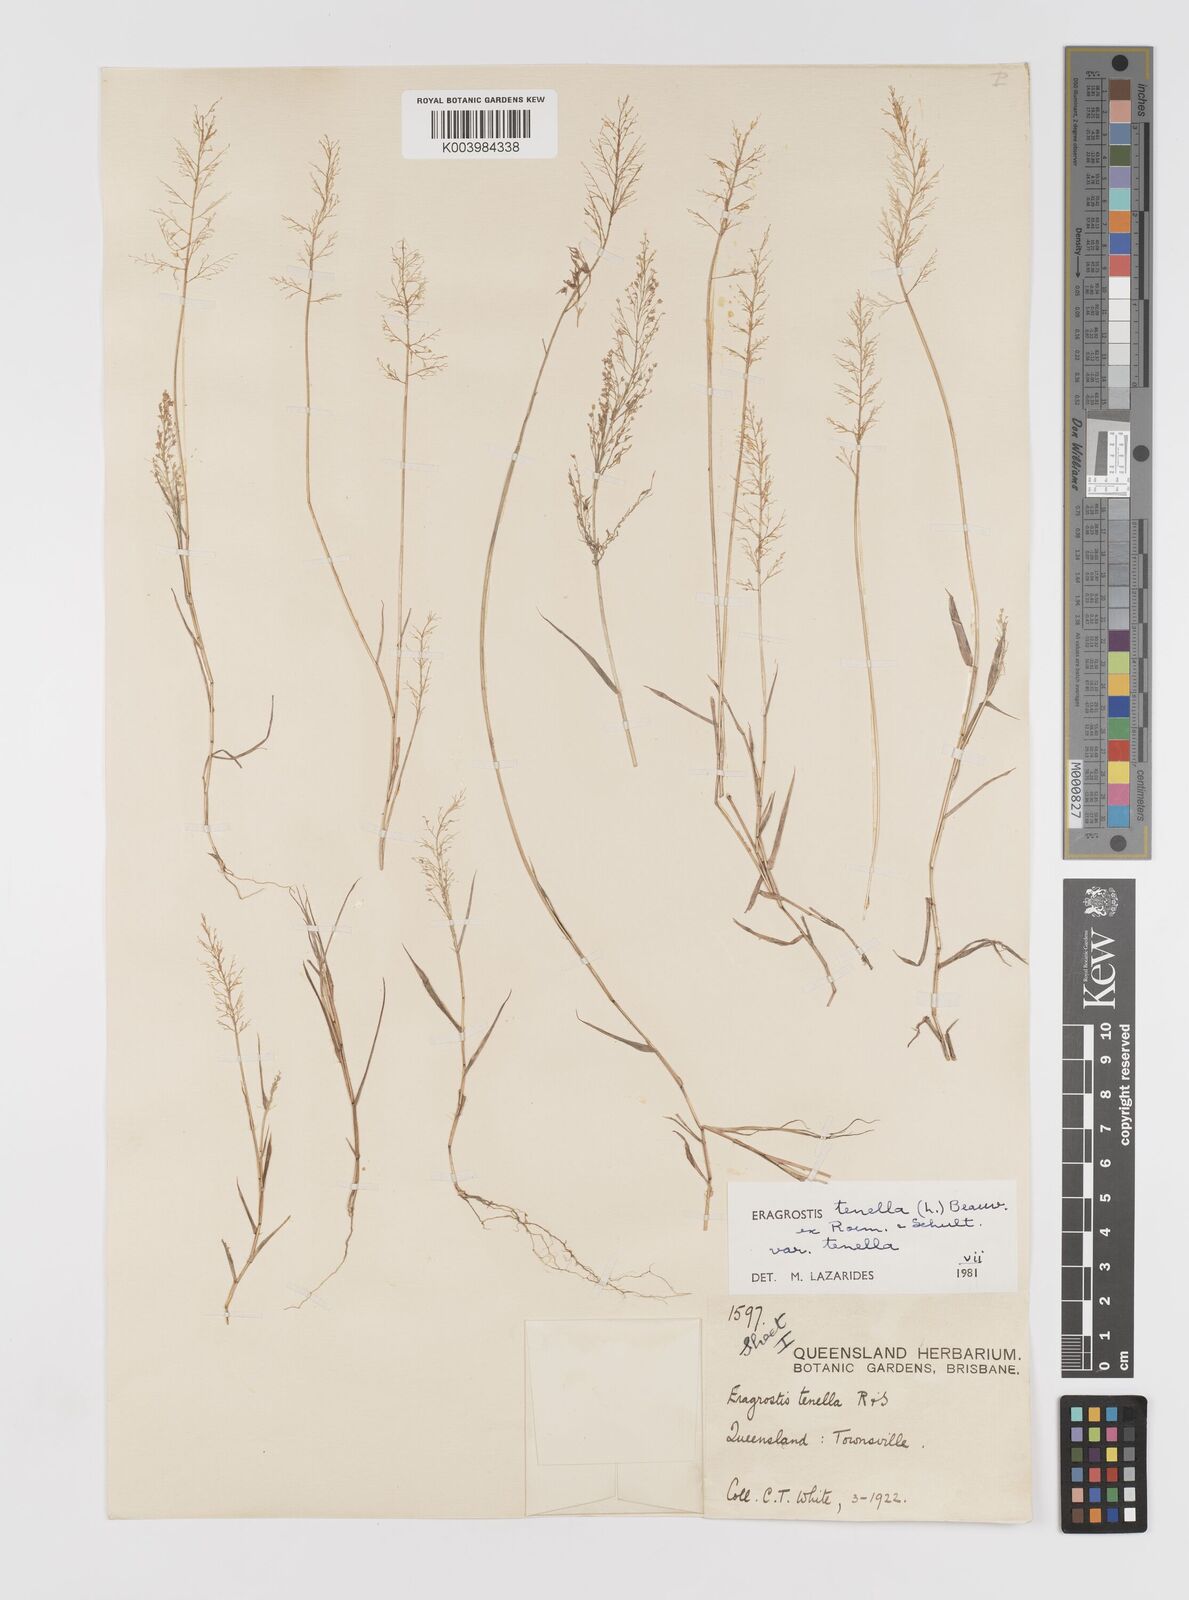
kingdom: Plantae
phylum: Tracheophyta
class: Liliopsida
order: Poales
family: Poaceae
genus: Eragrostis
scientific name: Eragrostis tenella
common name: Japanese lovegrass
